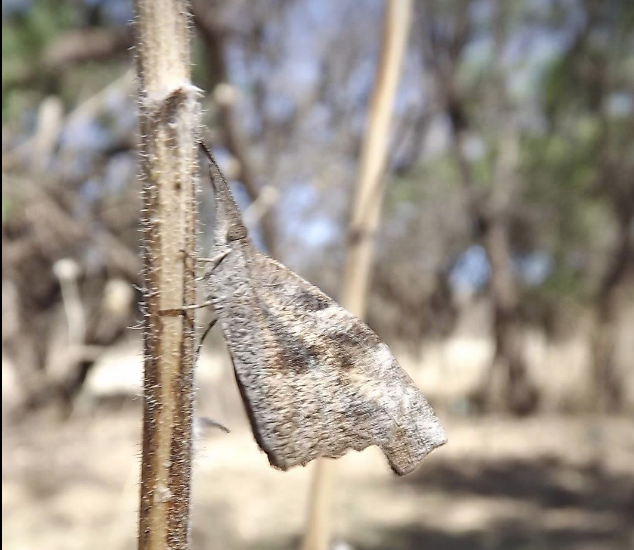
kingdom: Animalia
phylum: Arthropoda
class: Insecta
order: Lepidoptera
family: Nymphalidae
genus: Libytheana
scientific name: Libytheana carinenta
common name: American Snout
